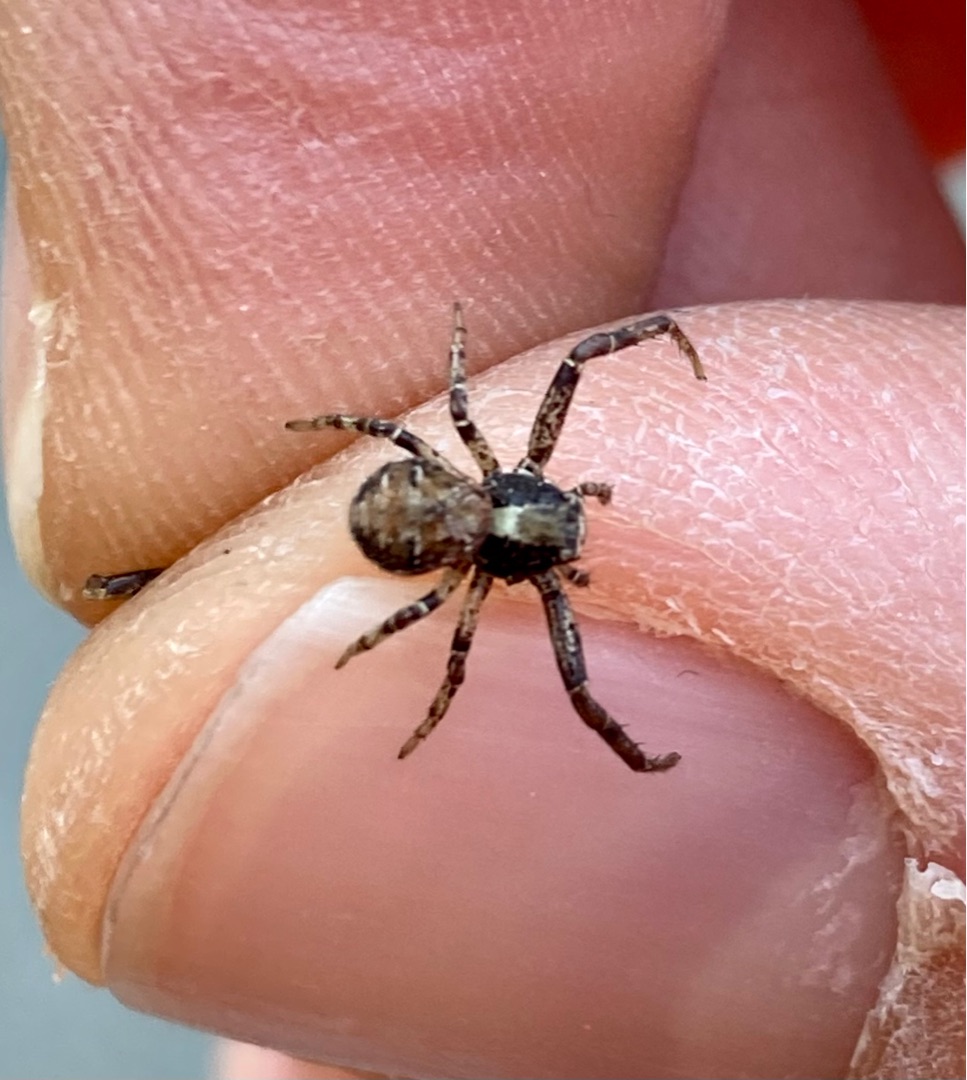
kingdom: Animalia
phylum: Arthropoda
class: Arachnida
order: Araneae
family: Thomisidae
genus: Xysticus
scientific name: Xysticus audax
